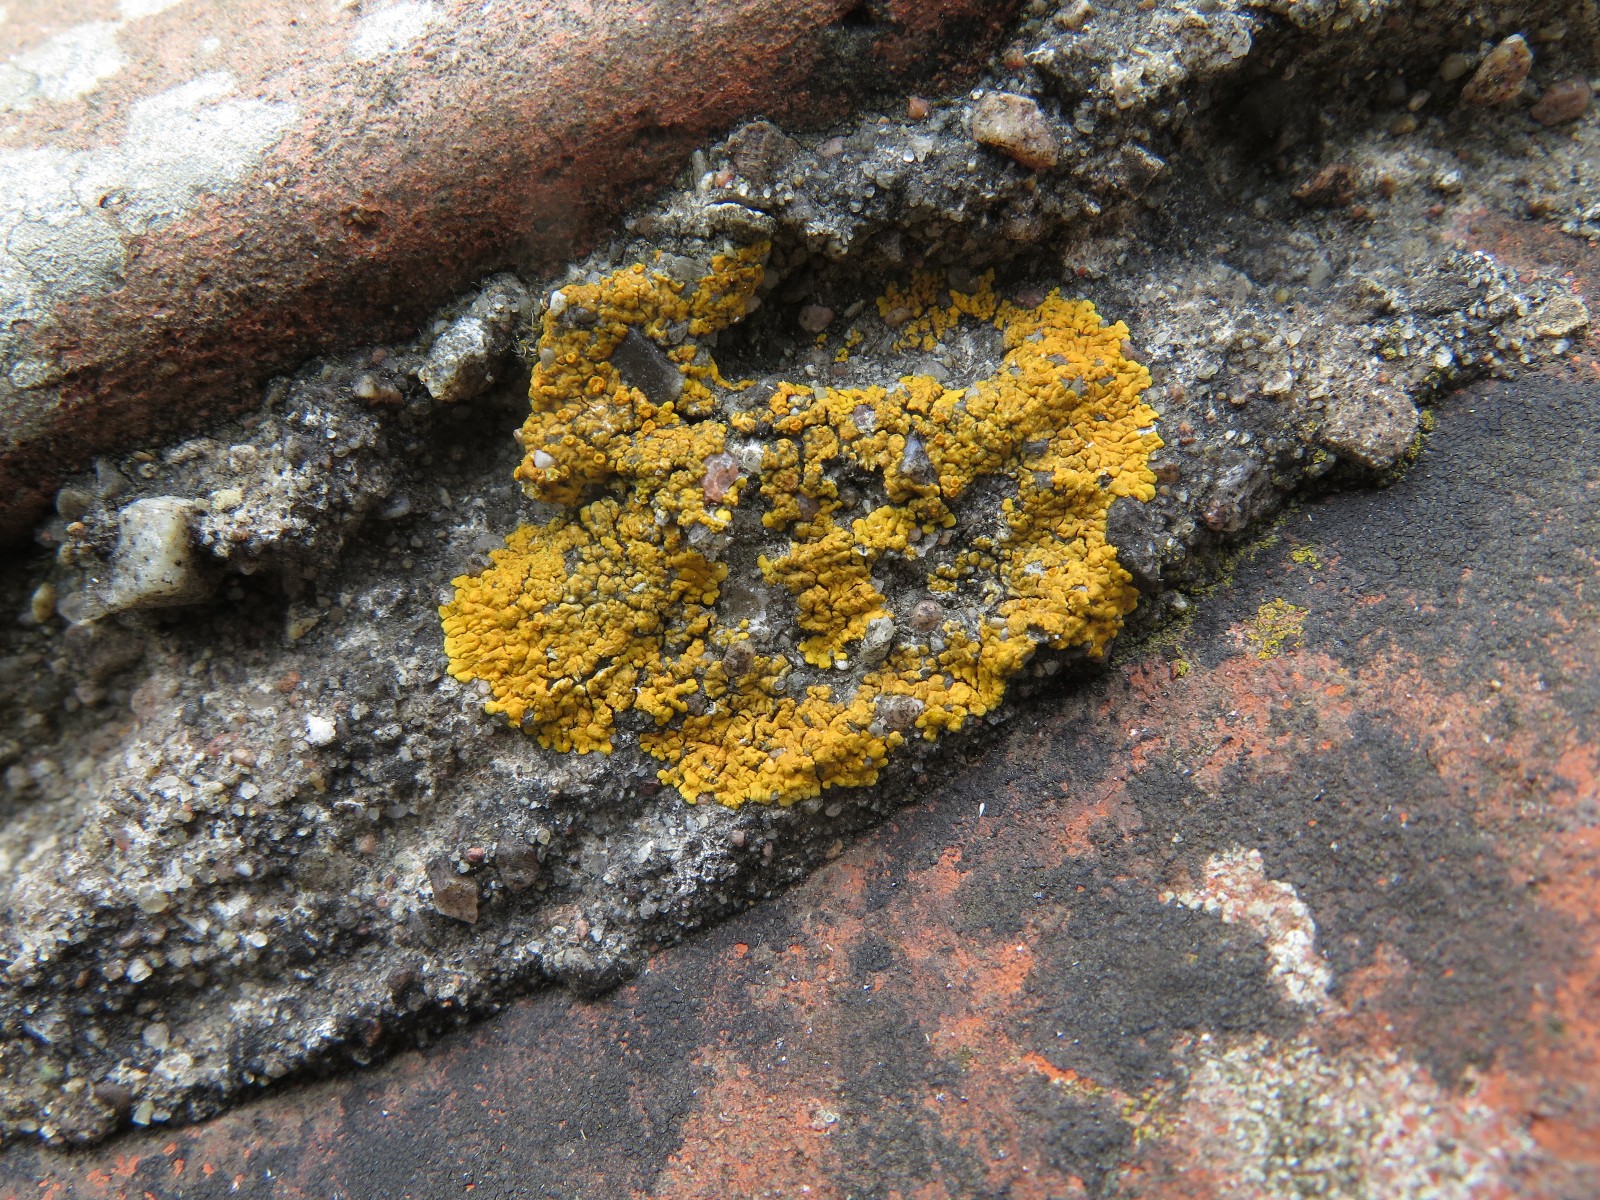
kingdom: Fungi
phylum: Ascomycota
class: Lecanoromycetes
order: Teloschistales
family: Teloschistaceae
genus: Variospora
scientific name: Variospora flavescens
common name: kalk-orangelav
